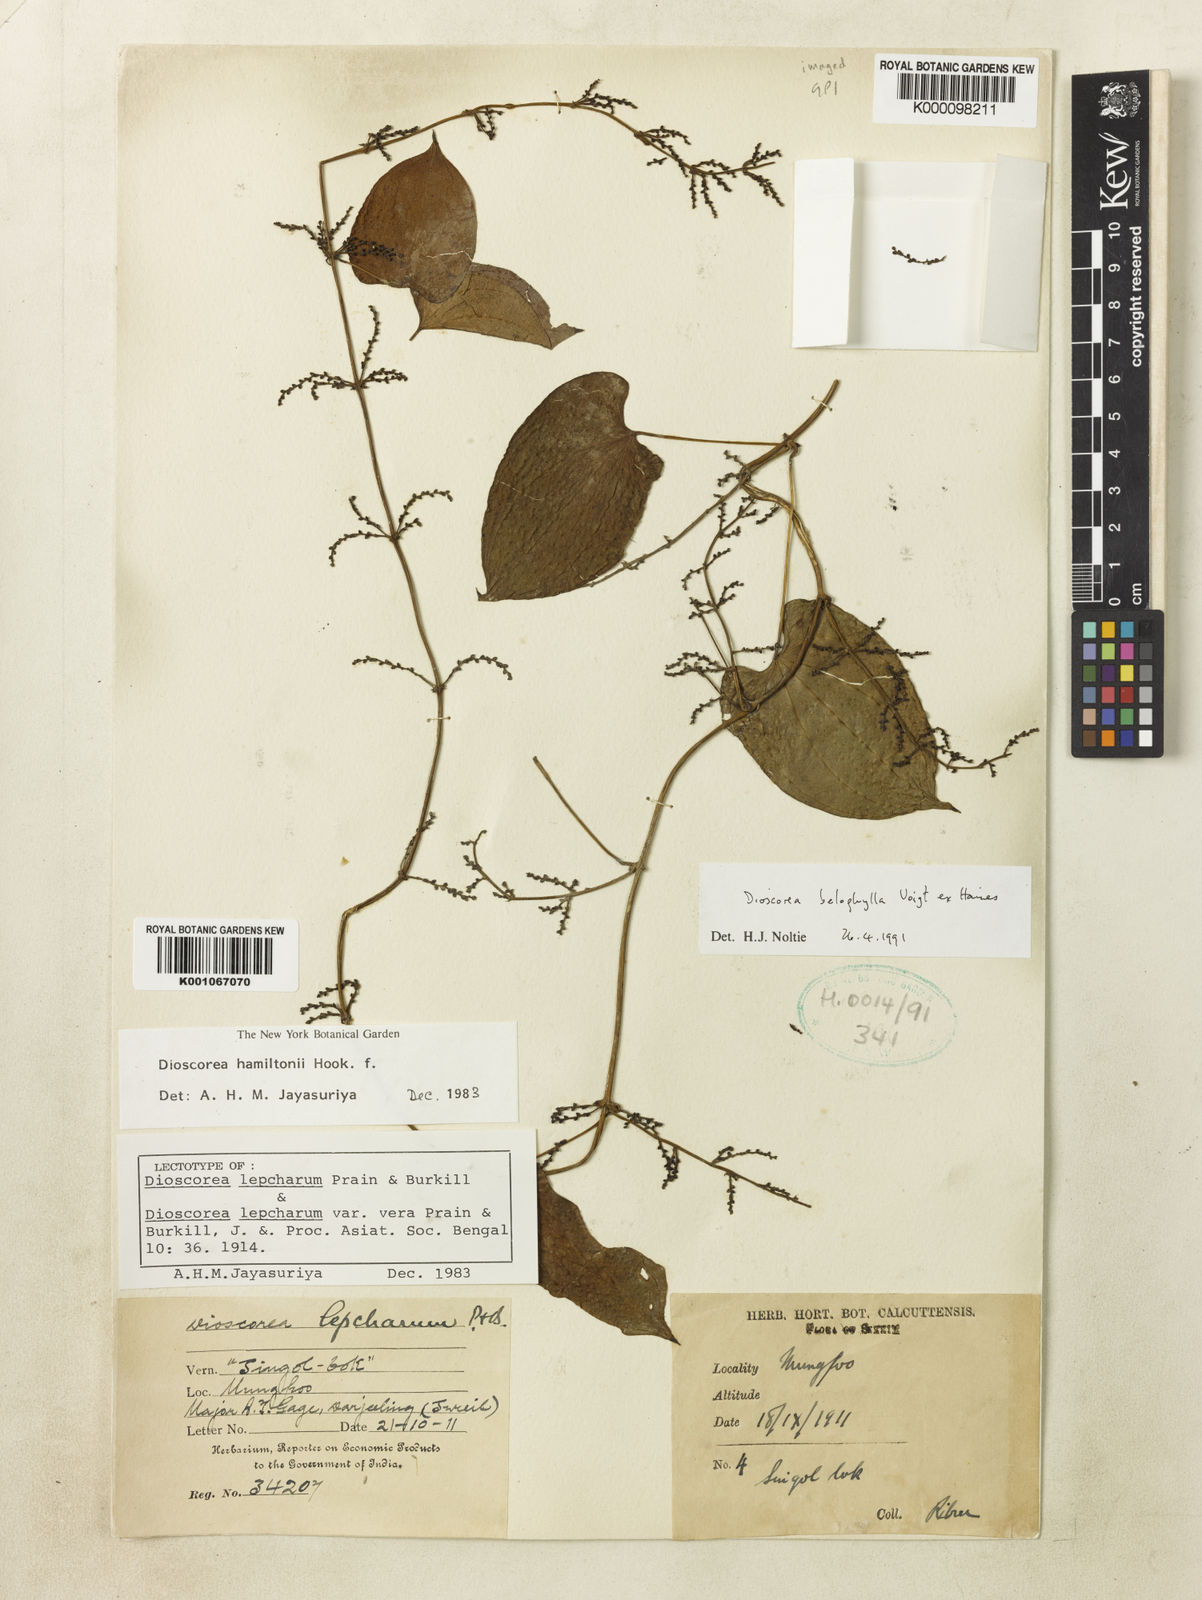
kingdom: Plantae
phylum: Tracheophyta
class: Liliopsida
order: Dioscoreales
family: Dioscoreaceae
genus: Dioscorea
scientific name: Dioscorea lepcharum
